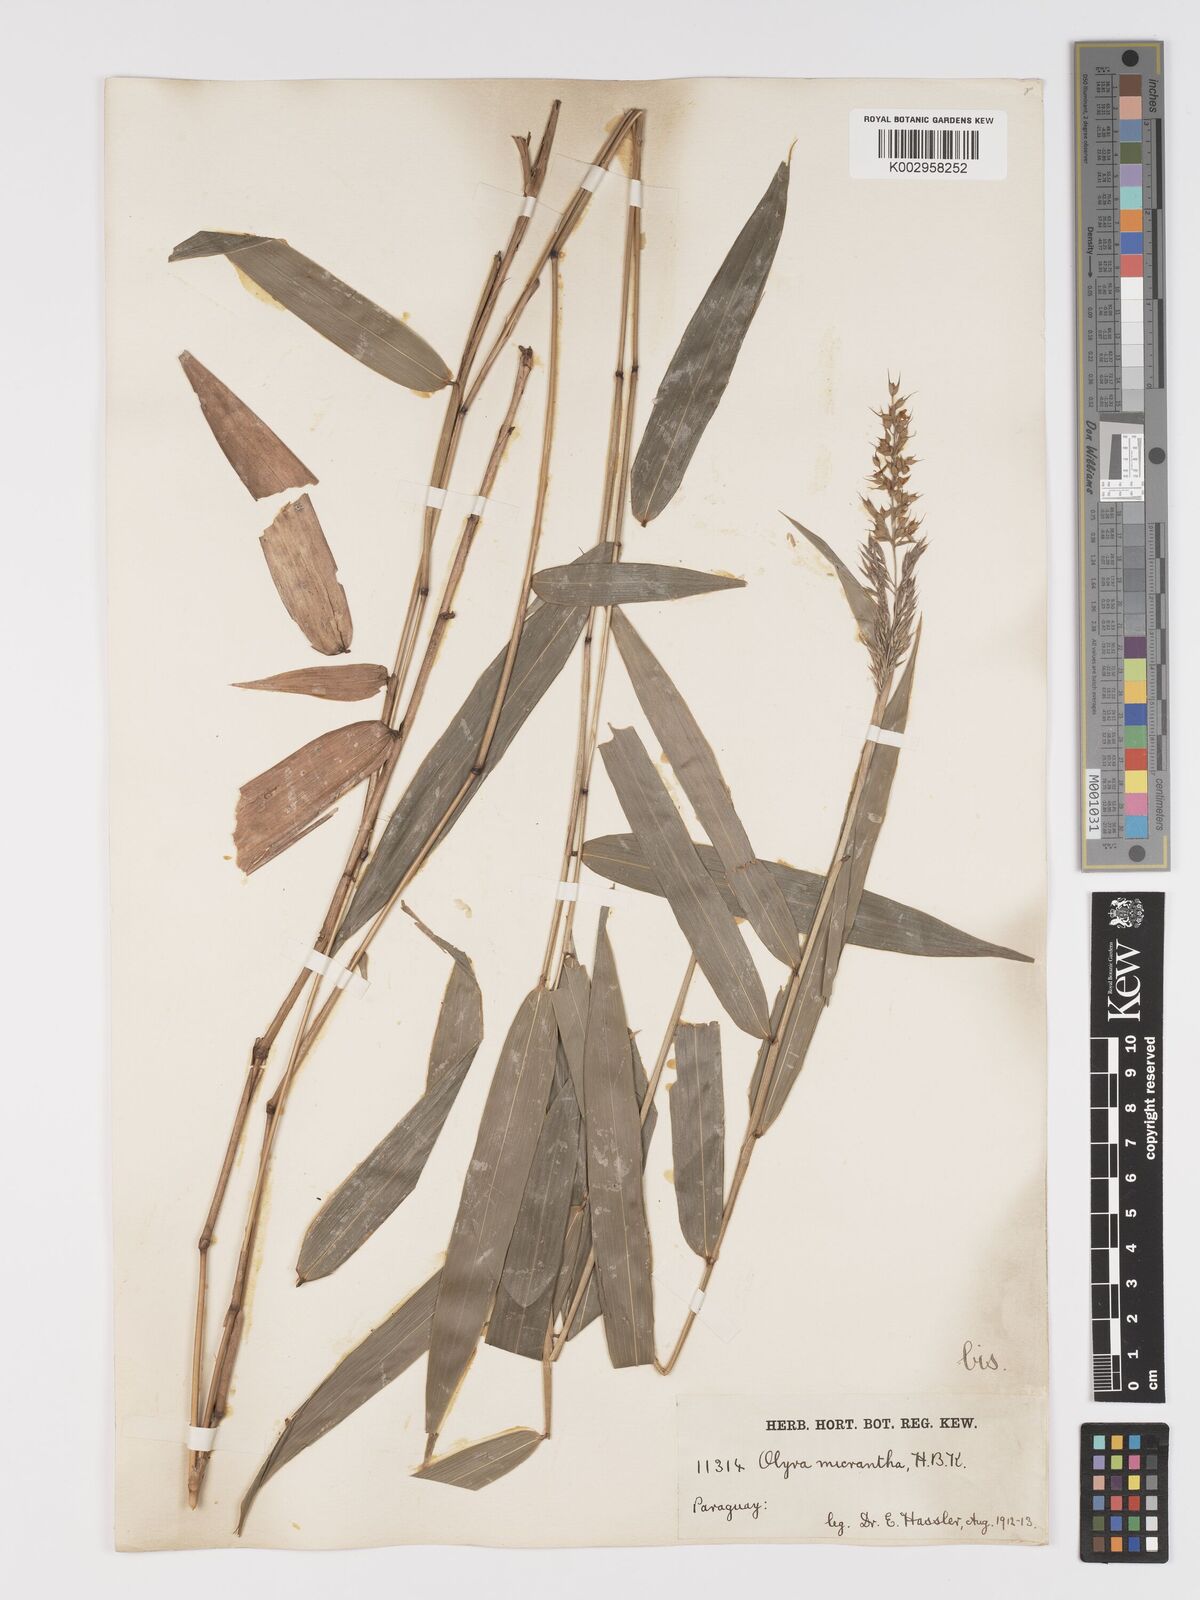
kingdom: Plantae
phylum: Tracheophyta
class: Liliopsida
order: Poales
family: Poaceae
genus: Taquara
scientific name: Taquara micrantha
